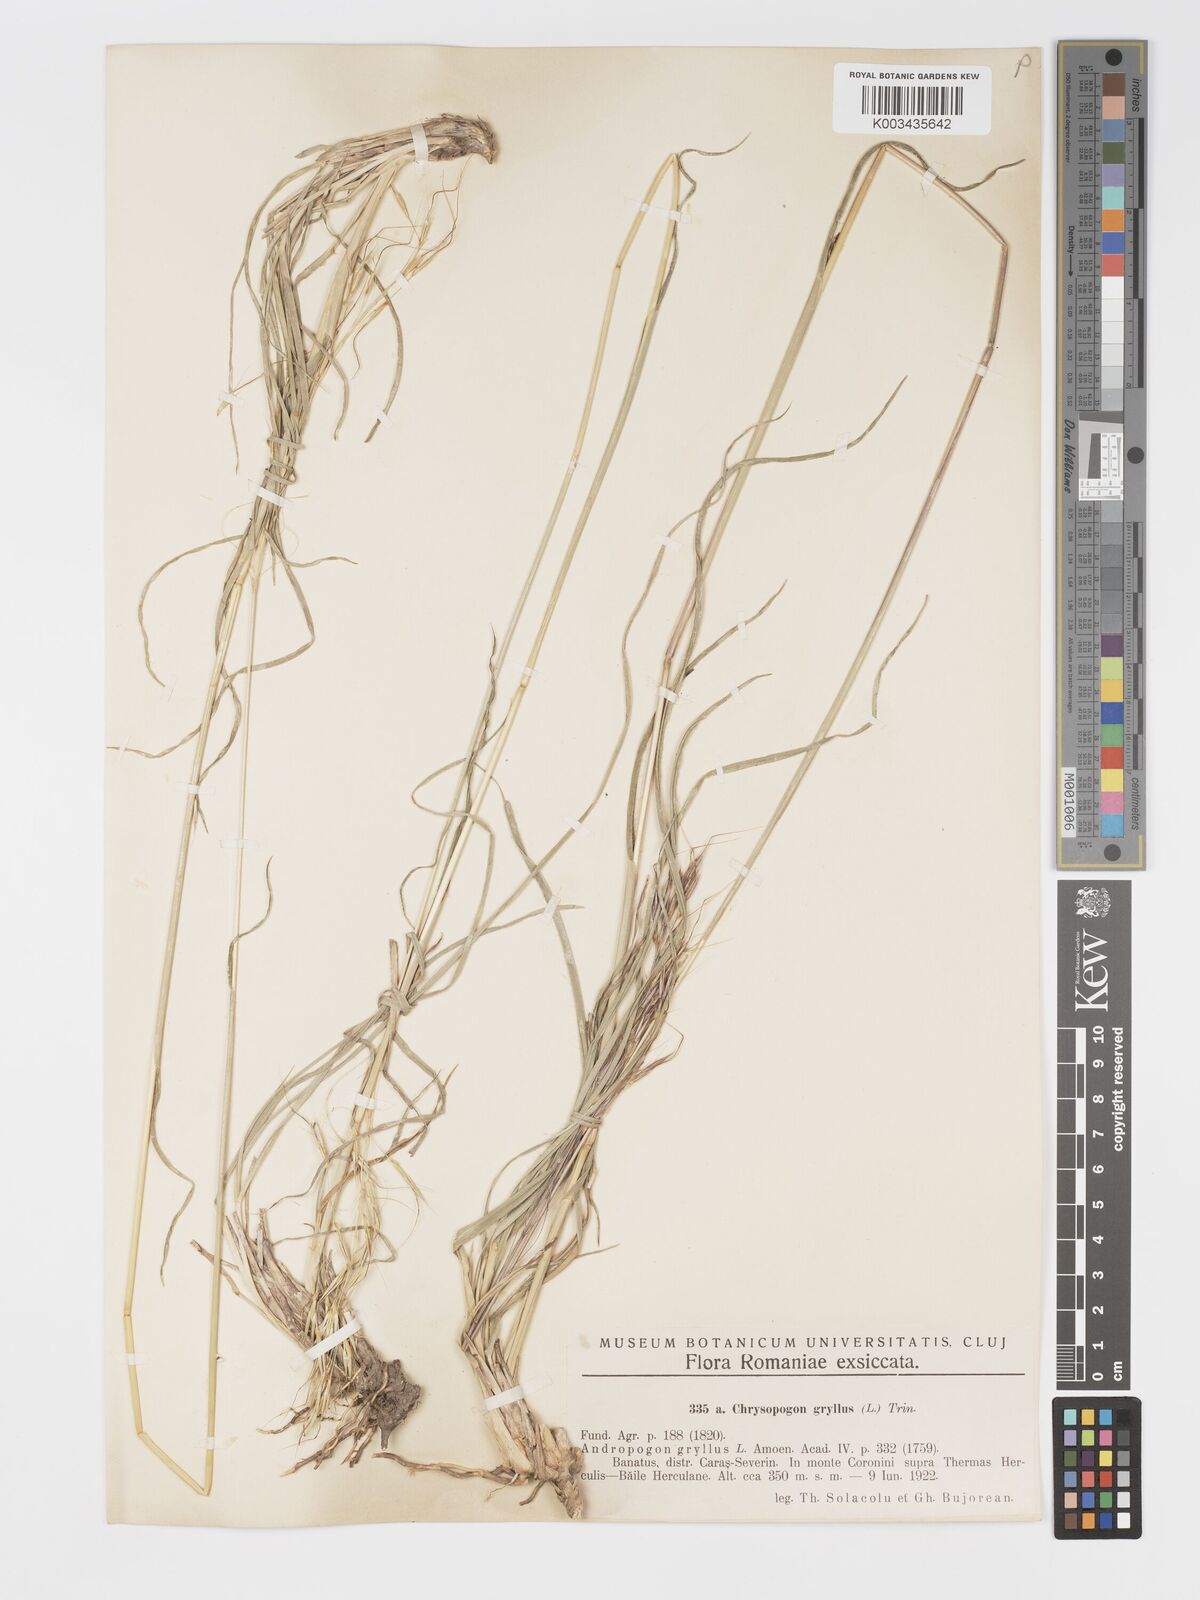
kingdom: Plantae
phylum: Tracheophyta
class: Liliopsida
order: Poales
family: Poaceae
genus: Chrysopogon
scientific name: Chrysopogon gryllus
